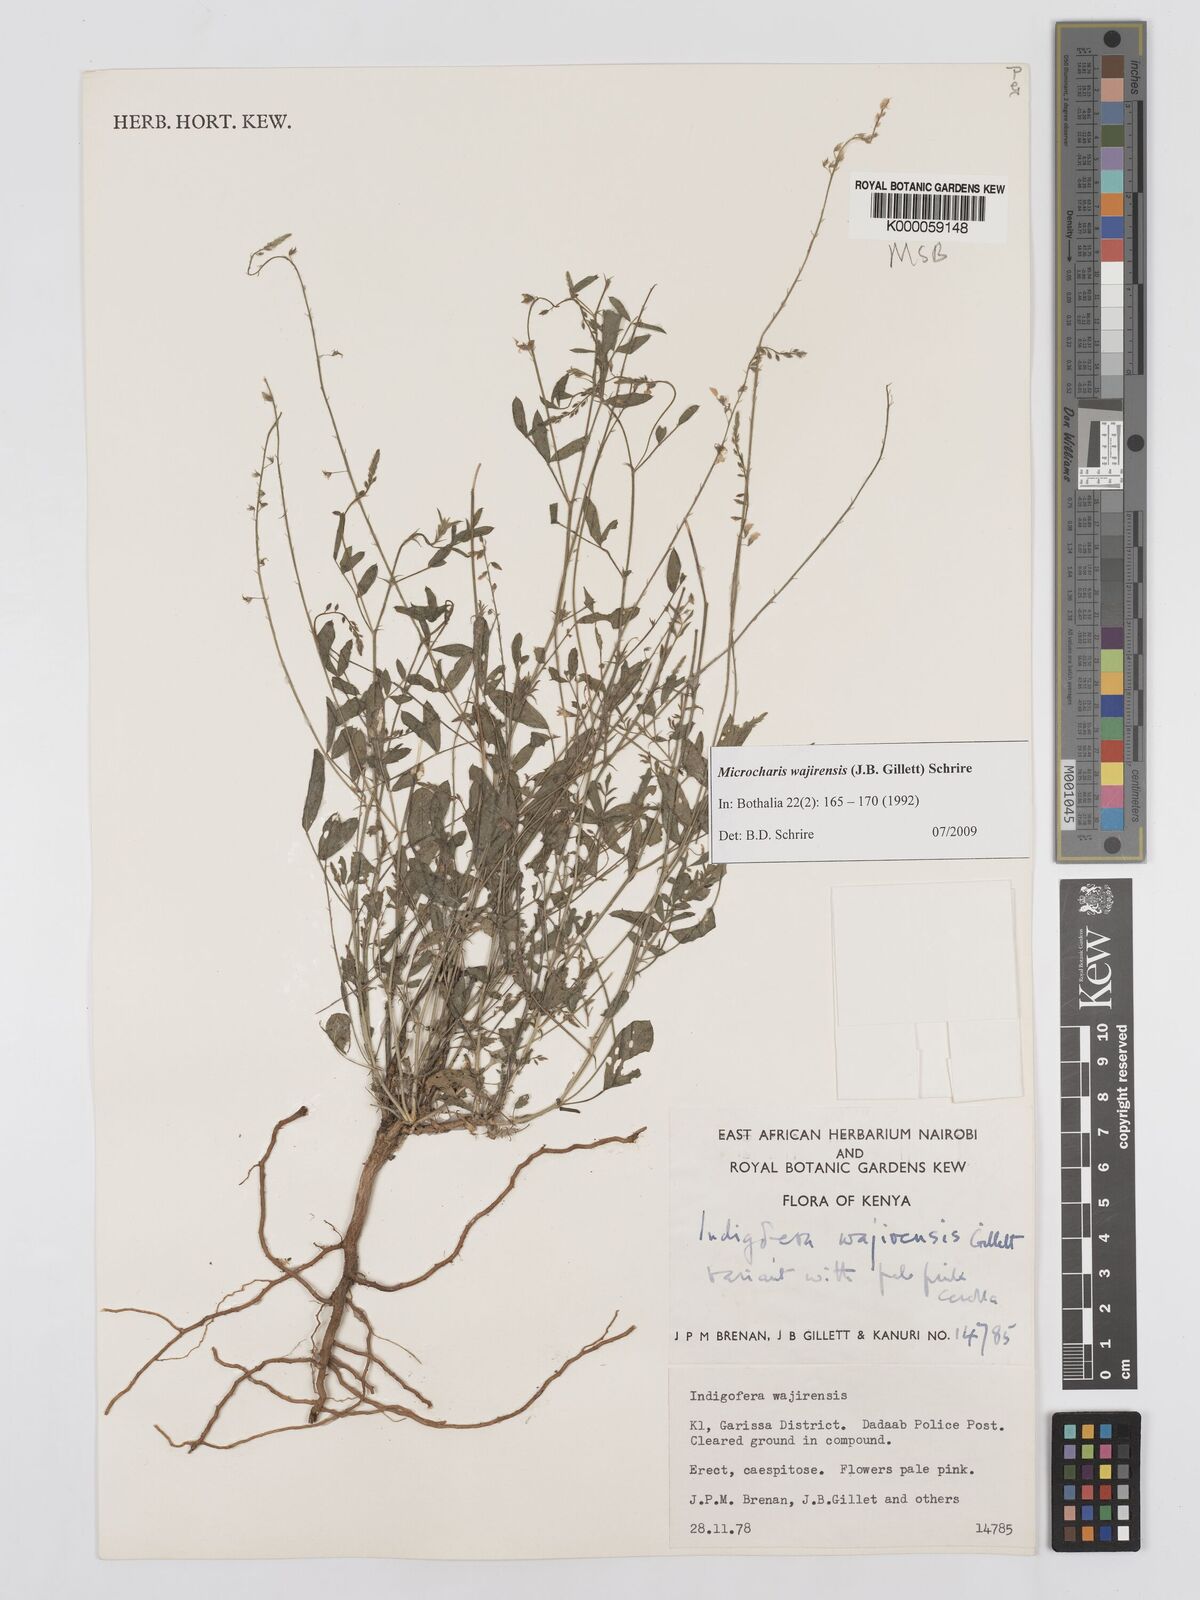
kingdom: Plantae
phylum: Tracheophyta
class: Magnoliopsida
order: Fabales
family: Fabaceae
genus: Microcharis
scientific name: Microcharis wajirensis
